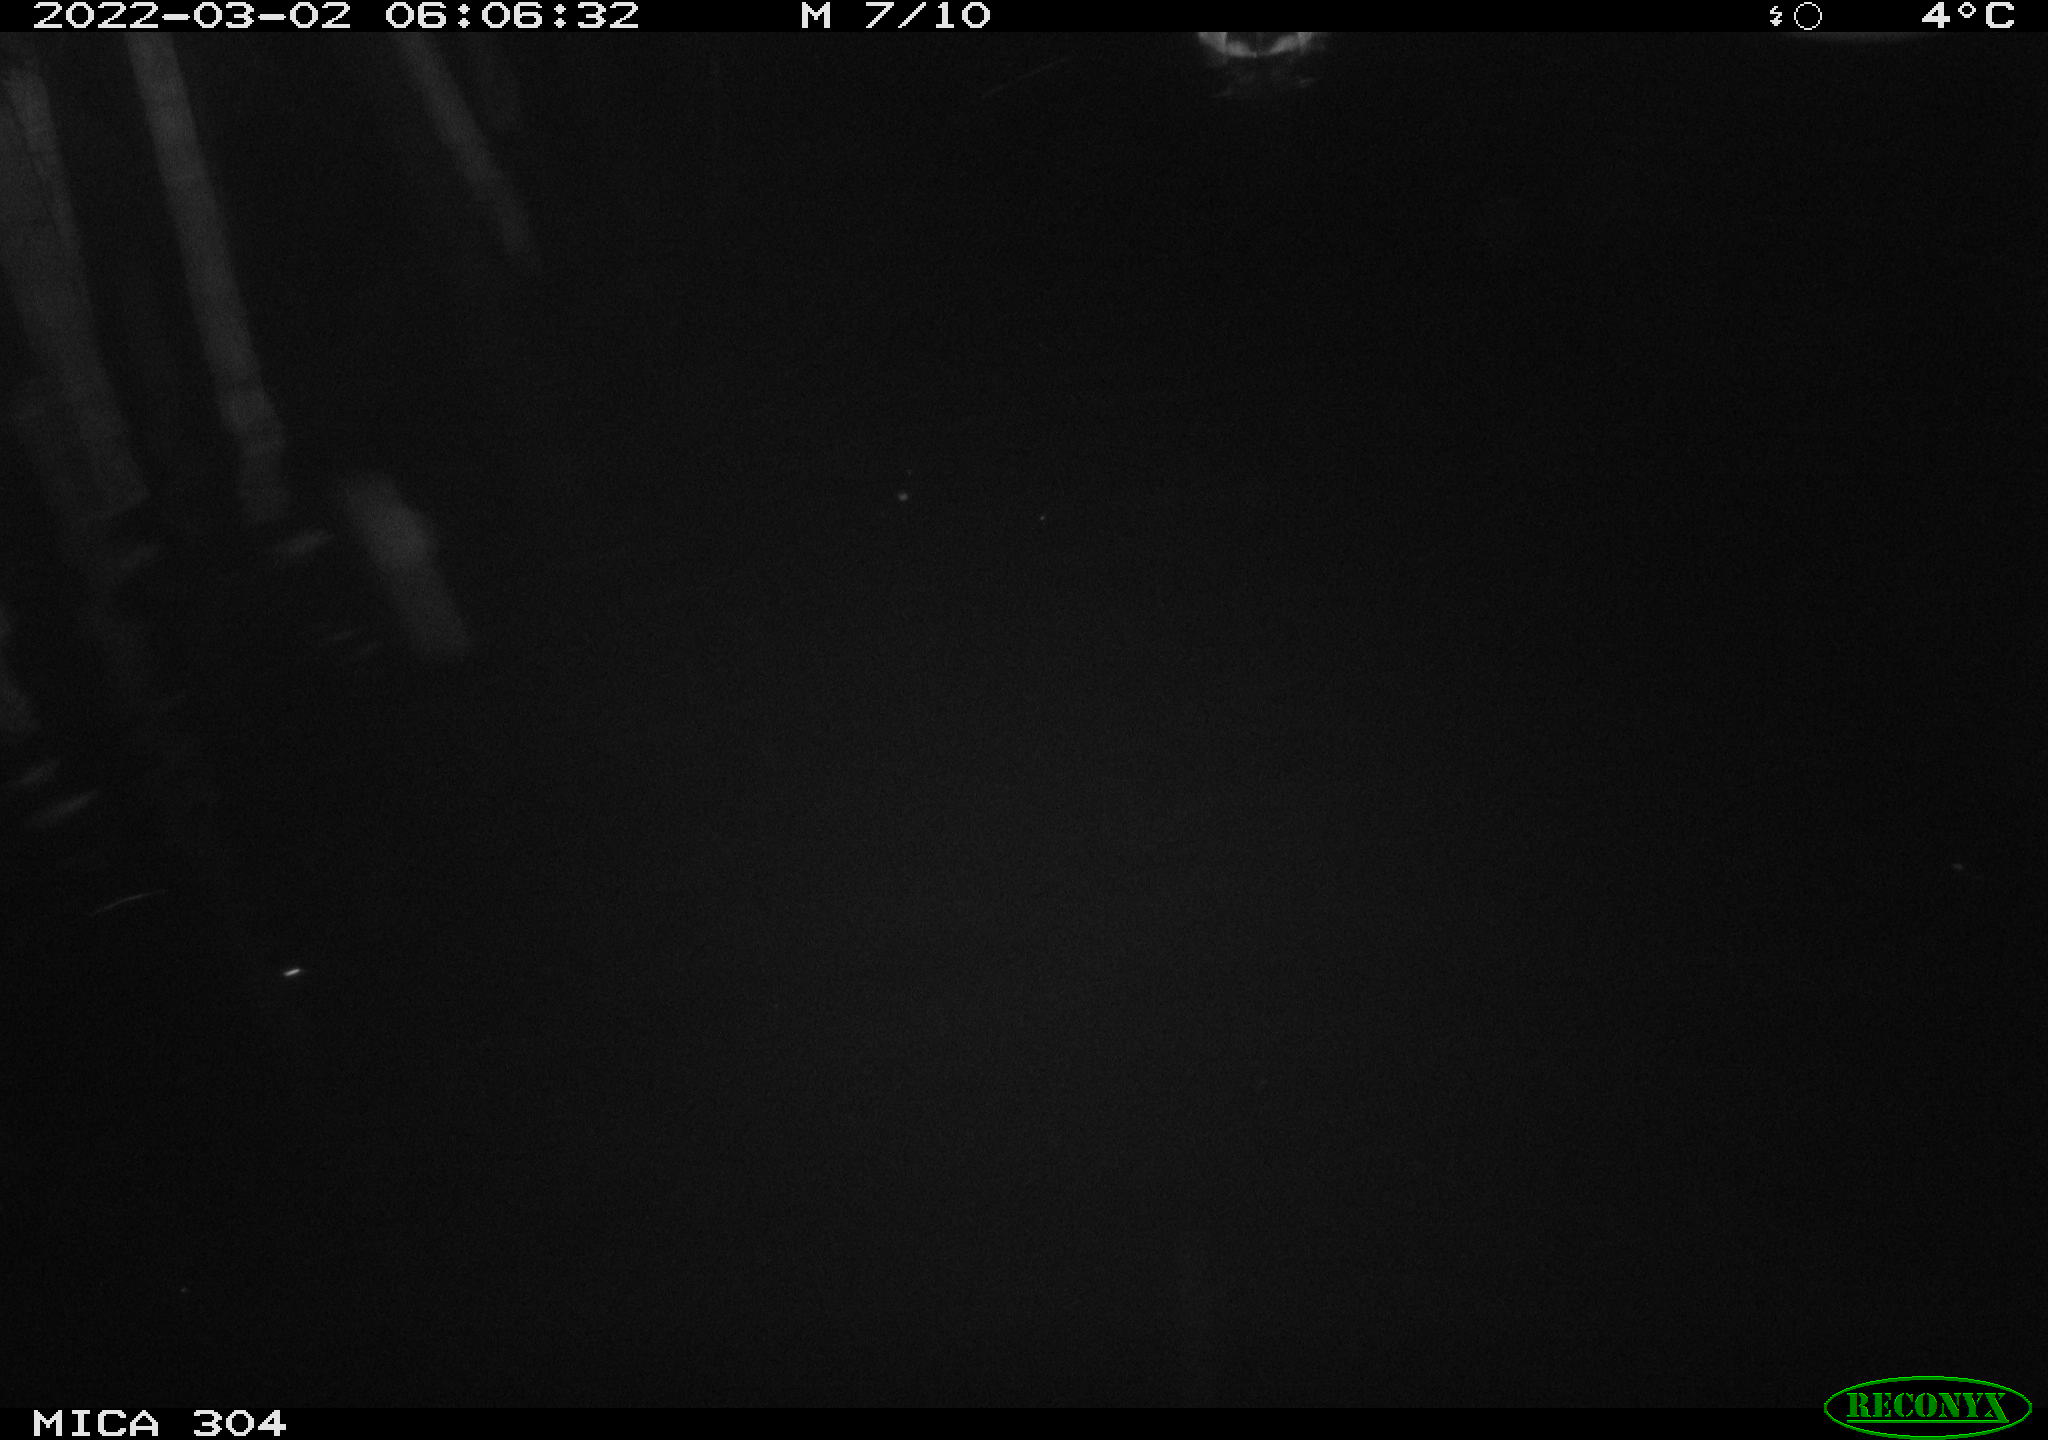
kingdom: Animalia
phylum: Chordata
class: Aves
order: Anseriformes
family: Anatidae
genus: Anas
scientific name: Anas platyrhynchos
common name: Mallard
